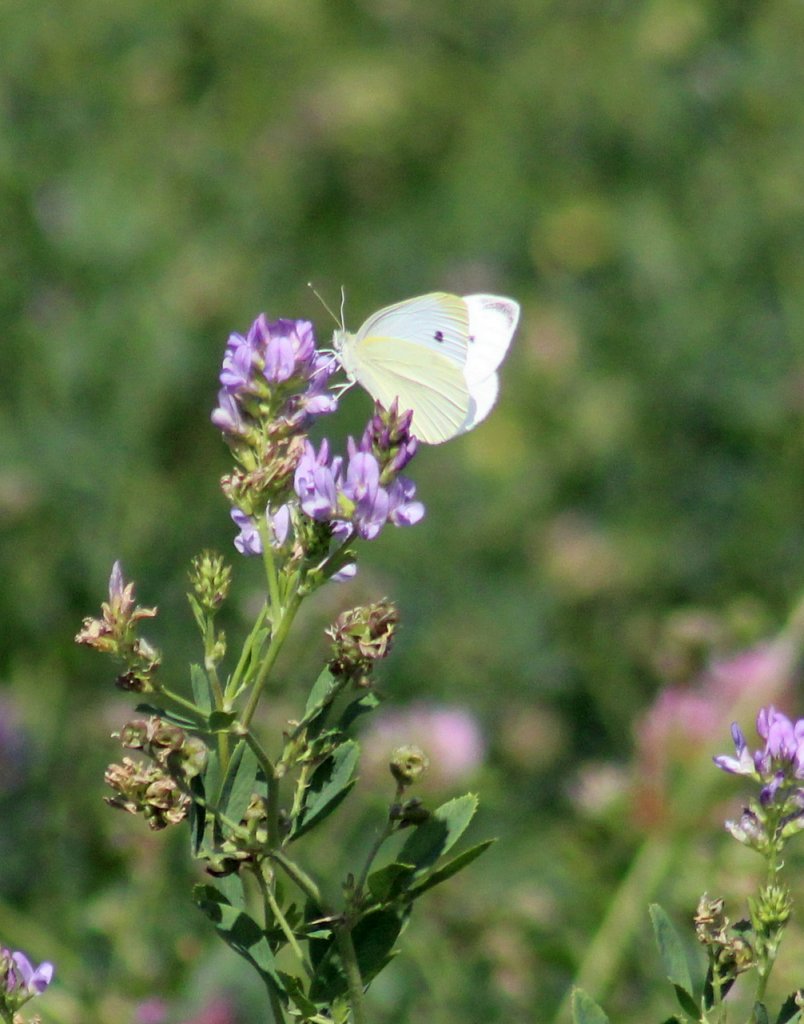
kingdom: Animalia
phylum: Arthropoda
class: Insecta
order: Lepidoptera
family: Pieridae
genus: Pieris
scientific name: Pieris rapae
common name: Cabbage White
